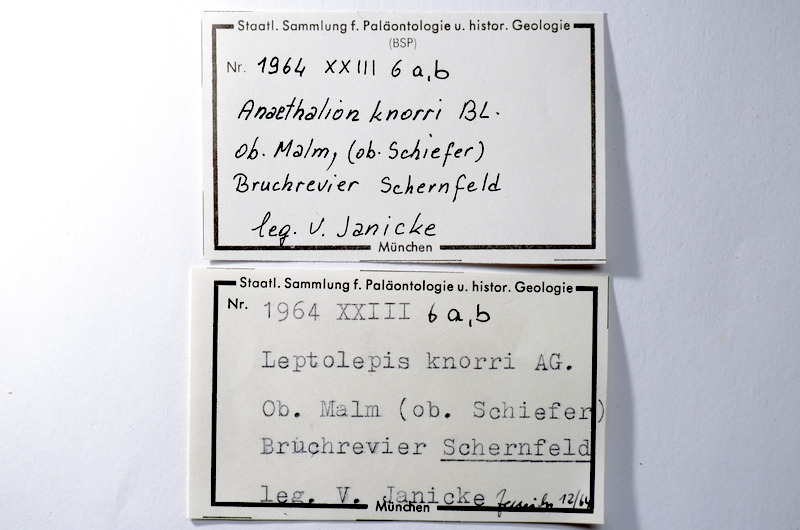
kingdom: Animalia
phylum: Chordata
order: Elopiformes
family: Anaethalionidae
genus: Anaethalion
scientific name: Anaethalion knorri
